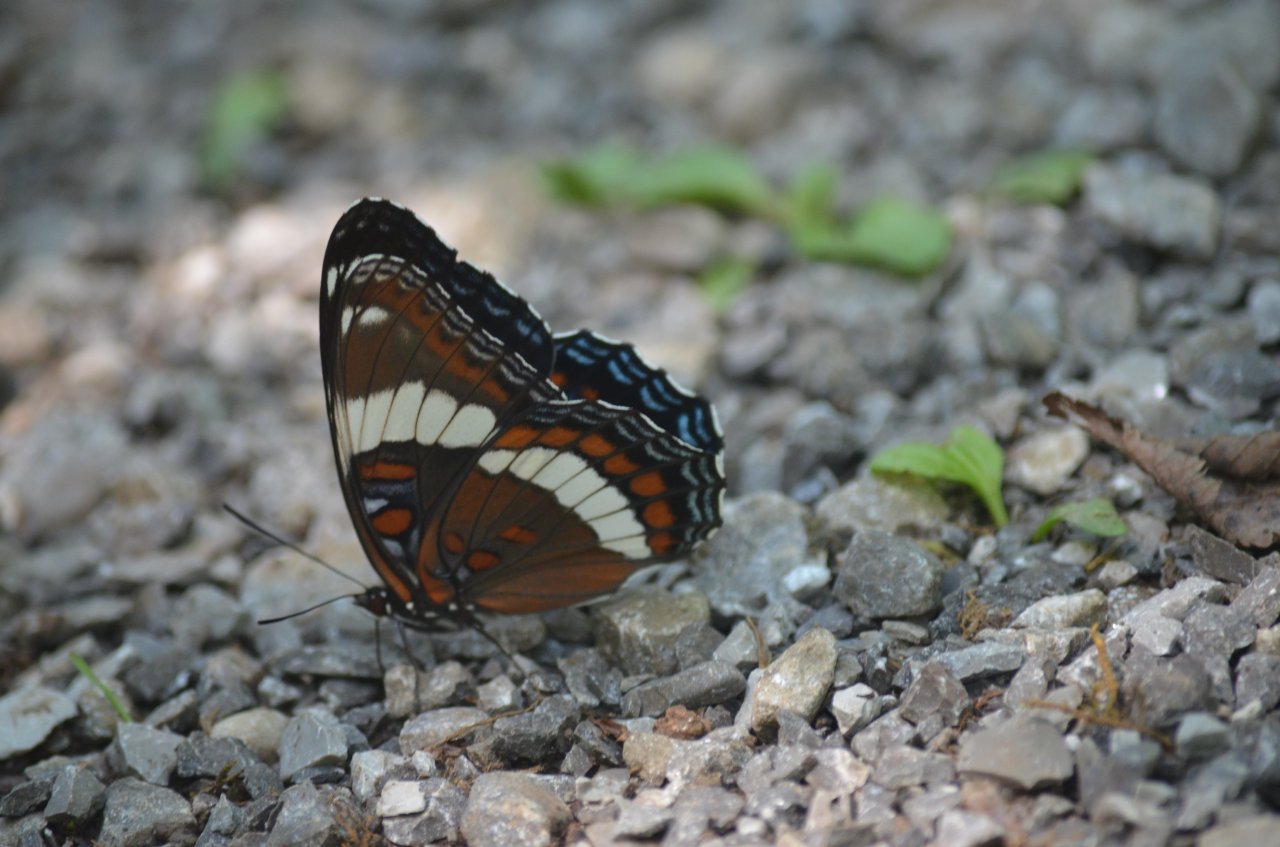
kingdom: Animalia
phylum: Arthropoda
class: Insecta
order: Lepidoptera
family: Nymphalidae
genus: Limenitis
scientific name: Limenitis arthemis
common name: Red-spotted Admiral
